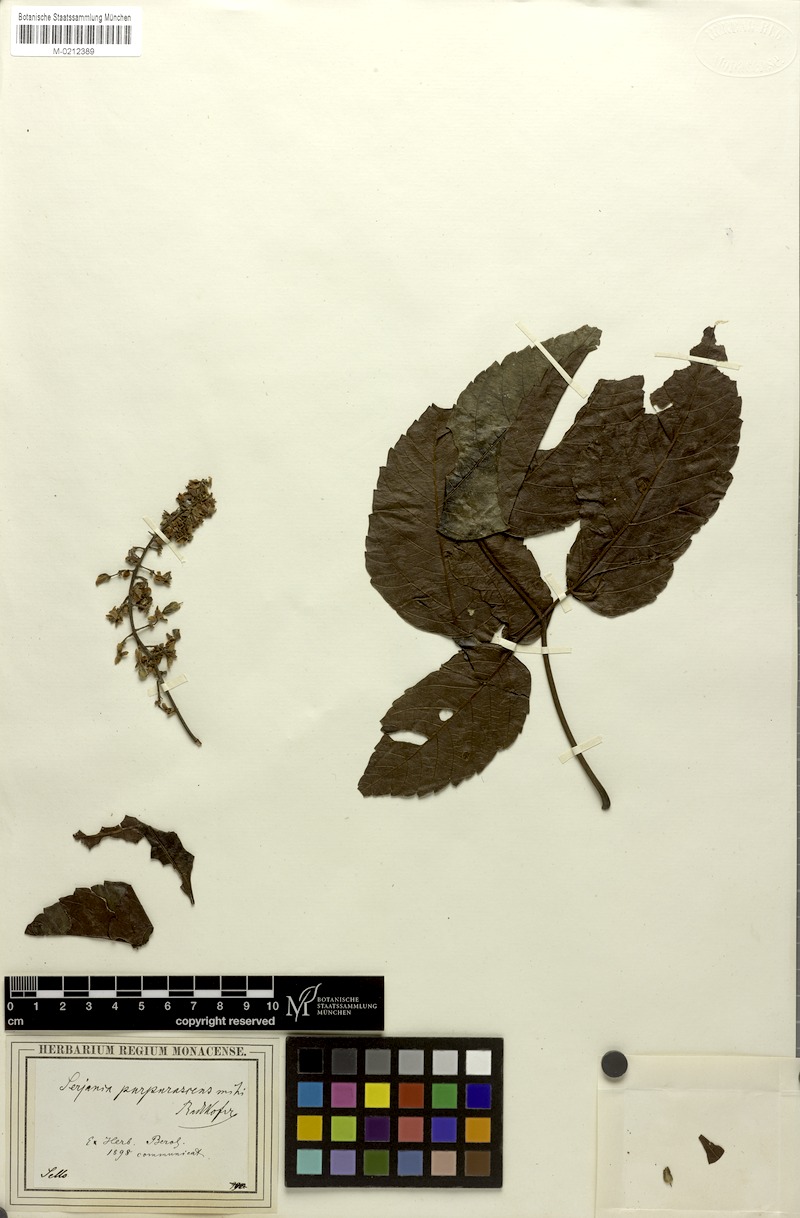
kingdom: Plantae
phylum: Tracheophyta
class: Magnoliopsida
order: Sapindales
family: Sapindaceae
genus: Serjania
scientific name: Serjania purpurascens
